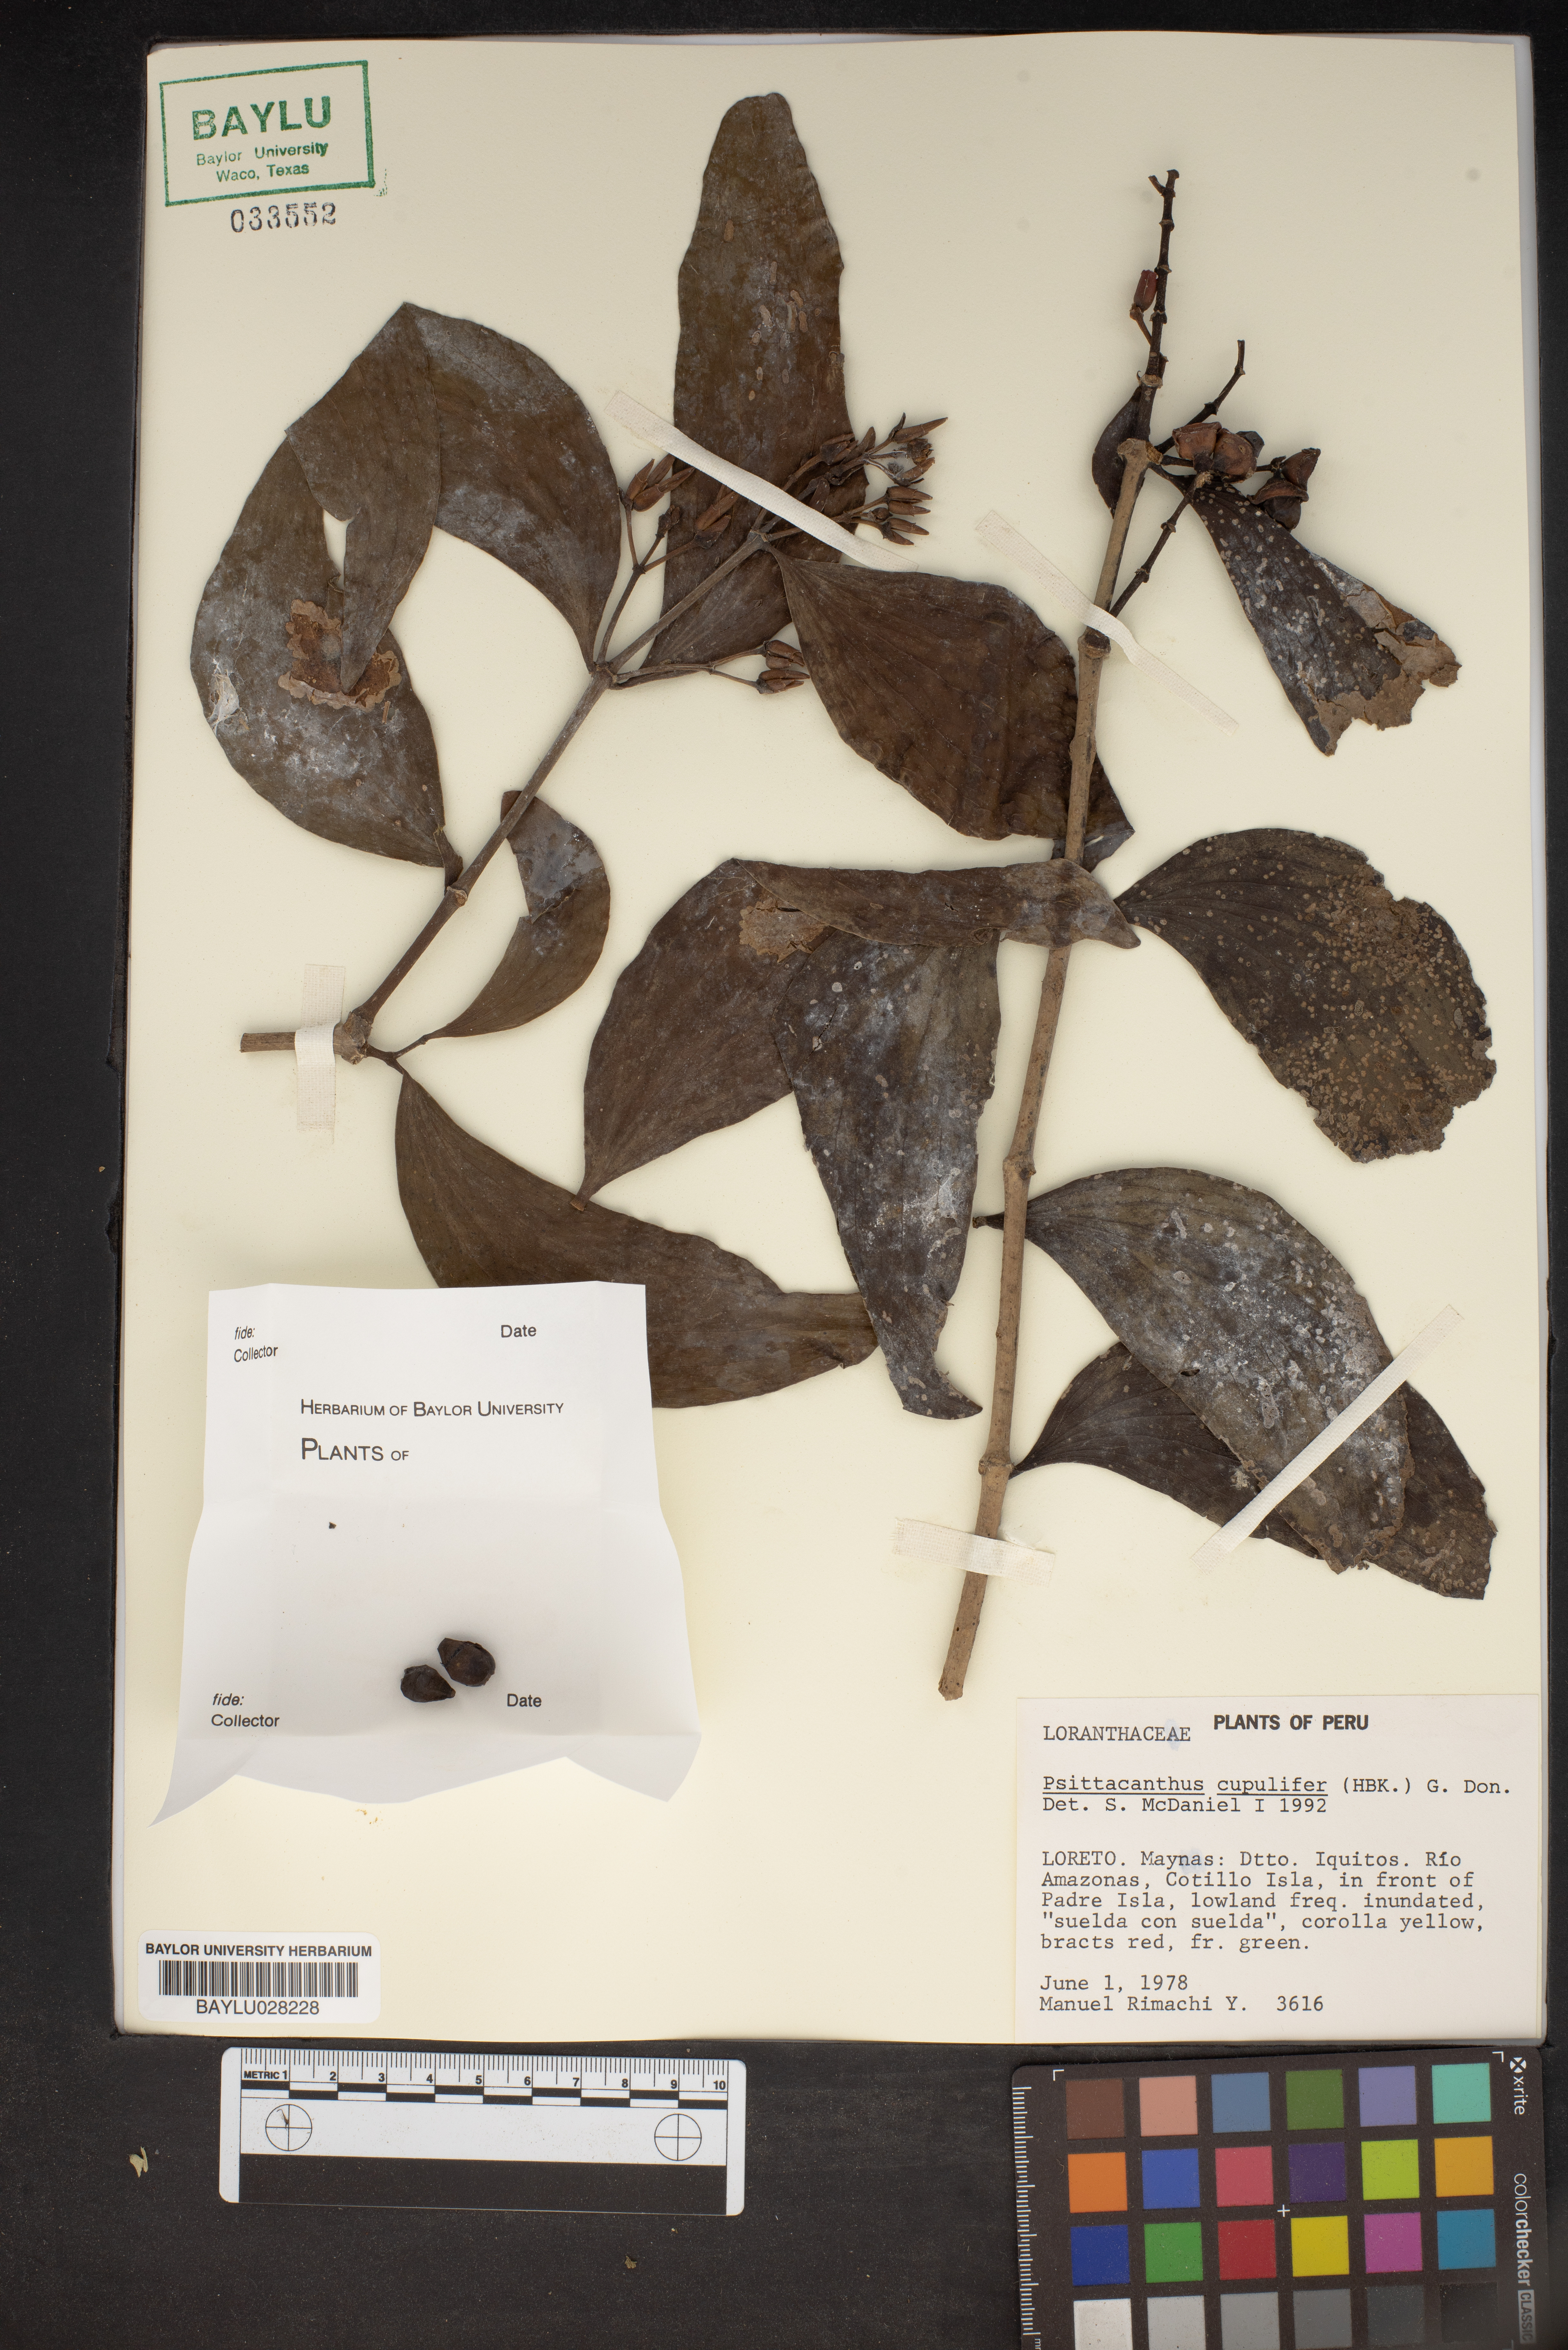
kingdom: Plantae
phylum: Tracheophyta
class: Magnoliopsida
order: Santalales
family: Loranthaceae
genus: Psittacanthus
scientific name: Psittacanthus cucullaris
